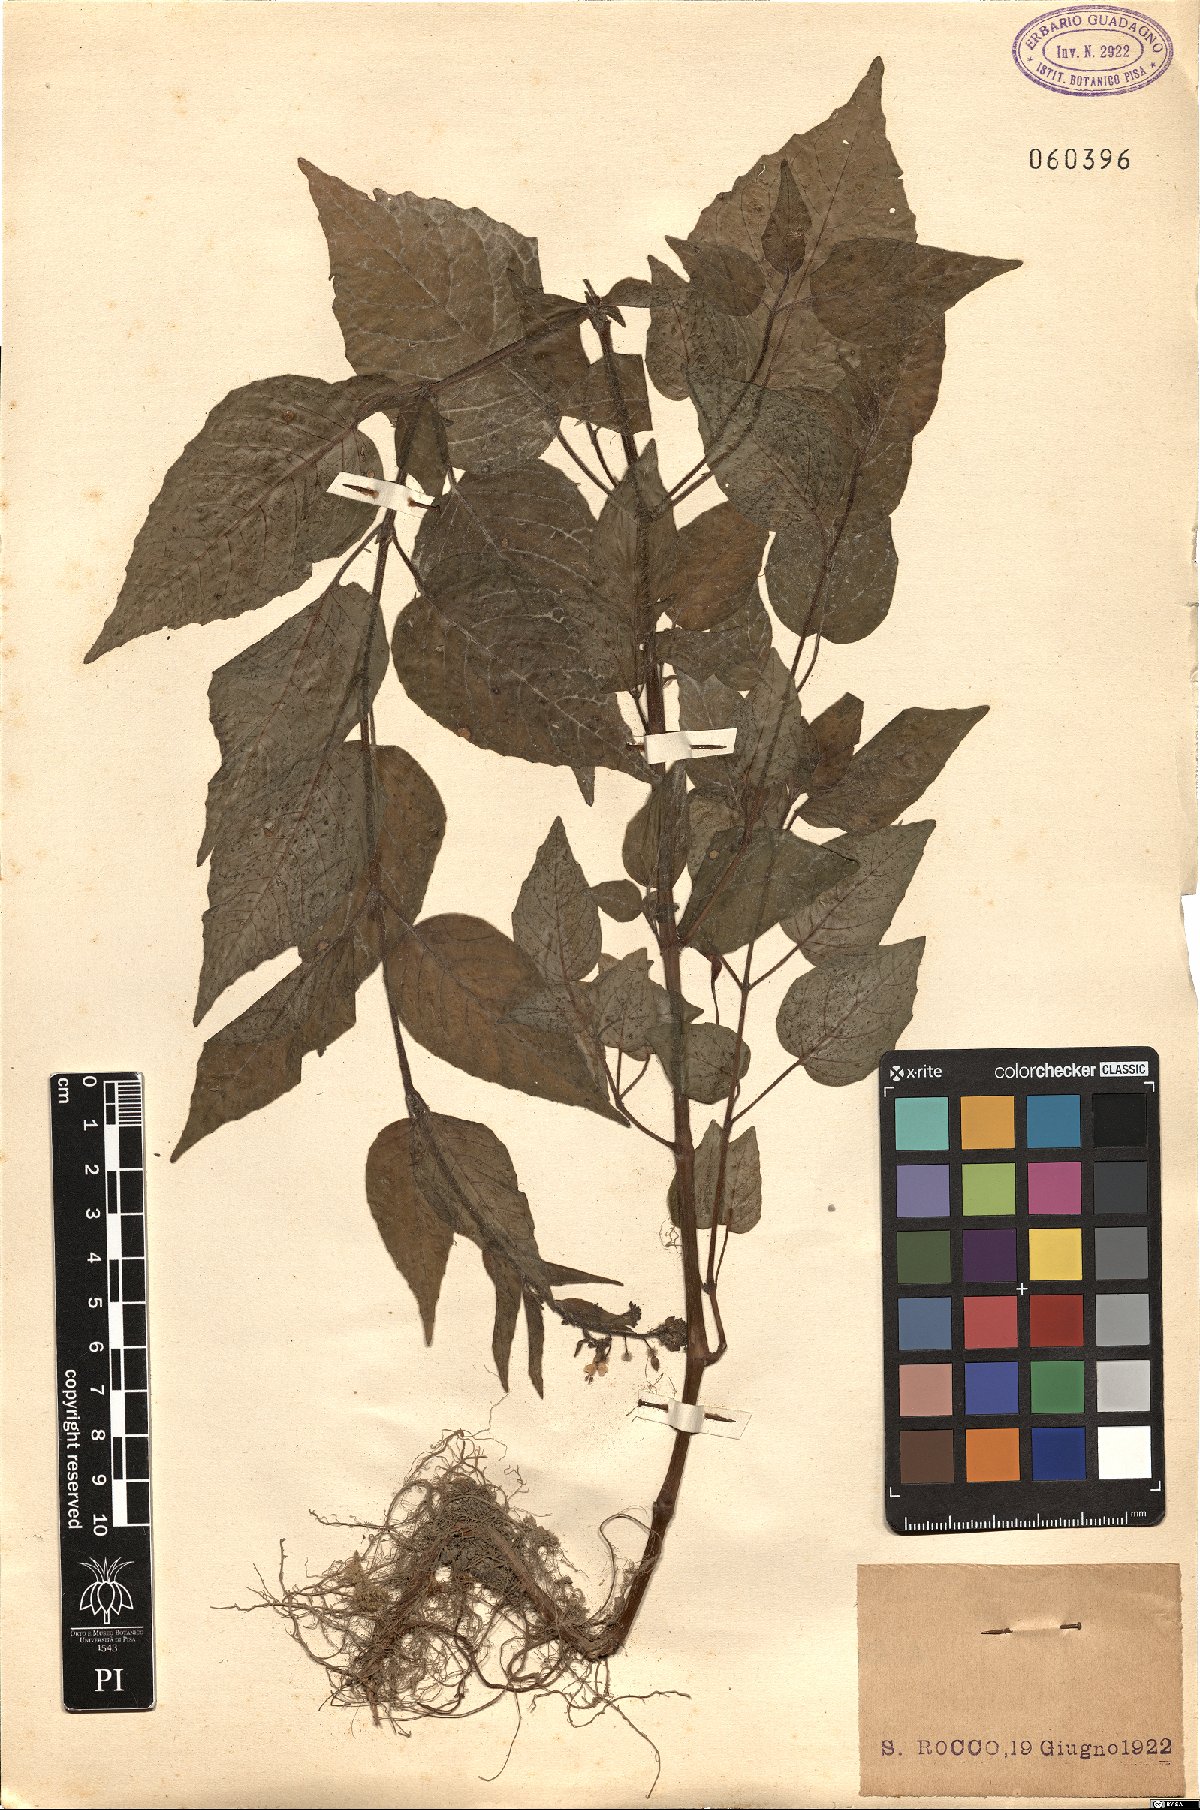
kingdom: Plantae
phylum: Tracheophyta
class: Magnoliopsida
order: Myrtales
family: Onagraceae
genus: Circaea
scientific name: Circaea lutetiana
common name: Enchanter's-nightshade
